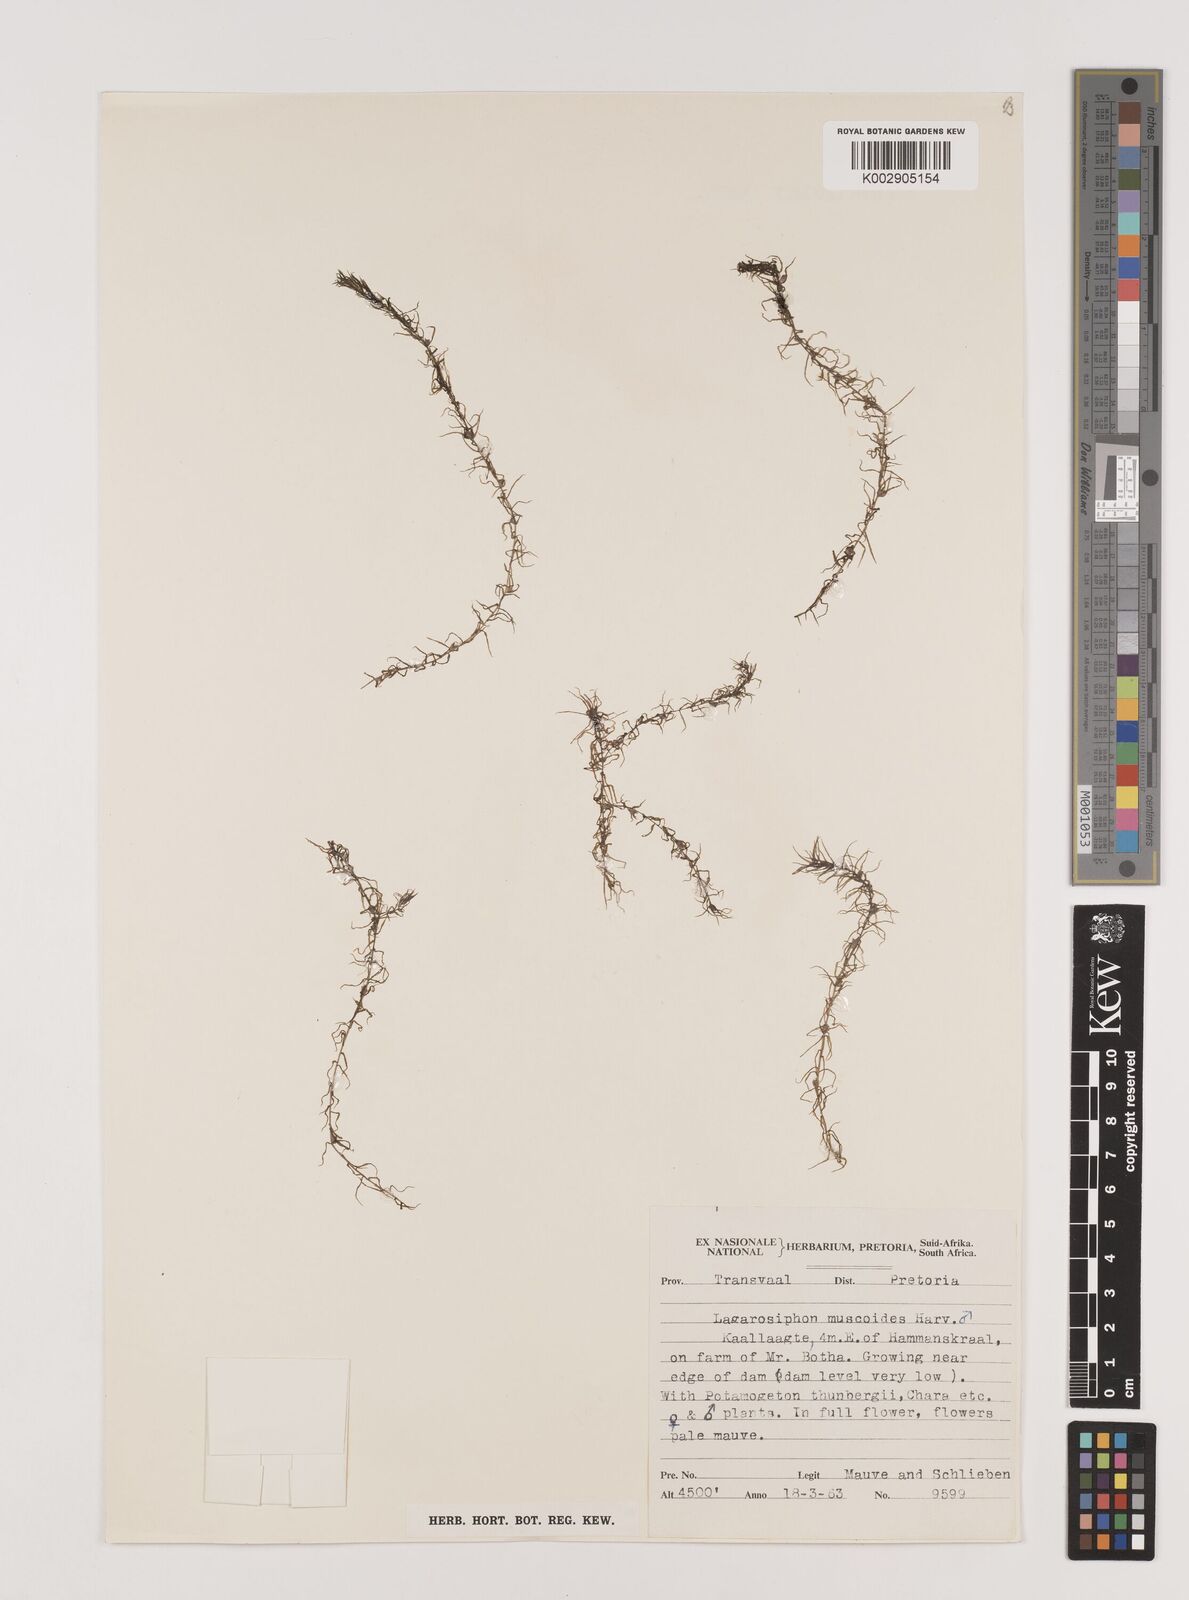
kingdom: Plantae
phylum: Tracheophyta
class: Liliopsida
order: Alismatales
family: Hydrocharitaceae
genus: Lagarosiphon
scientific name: Lagarosiphon muscoides
